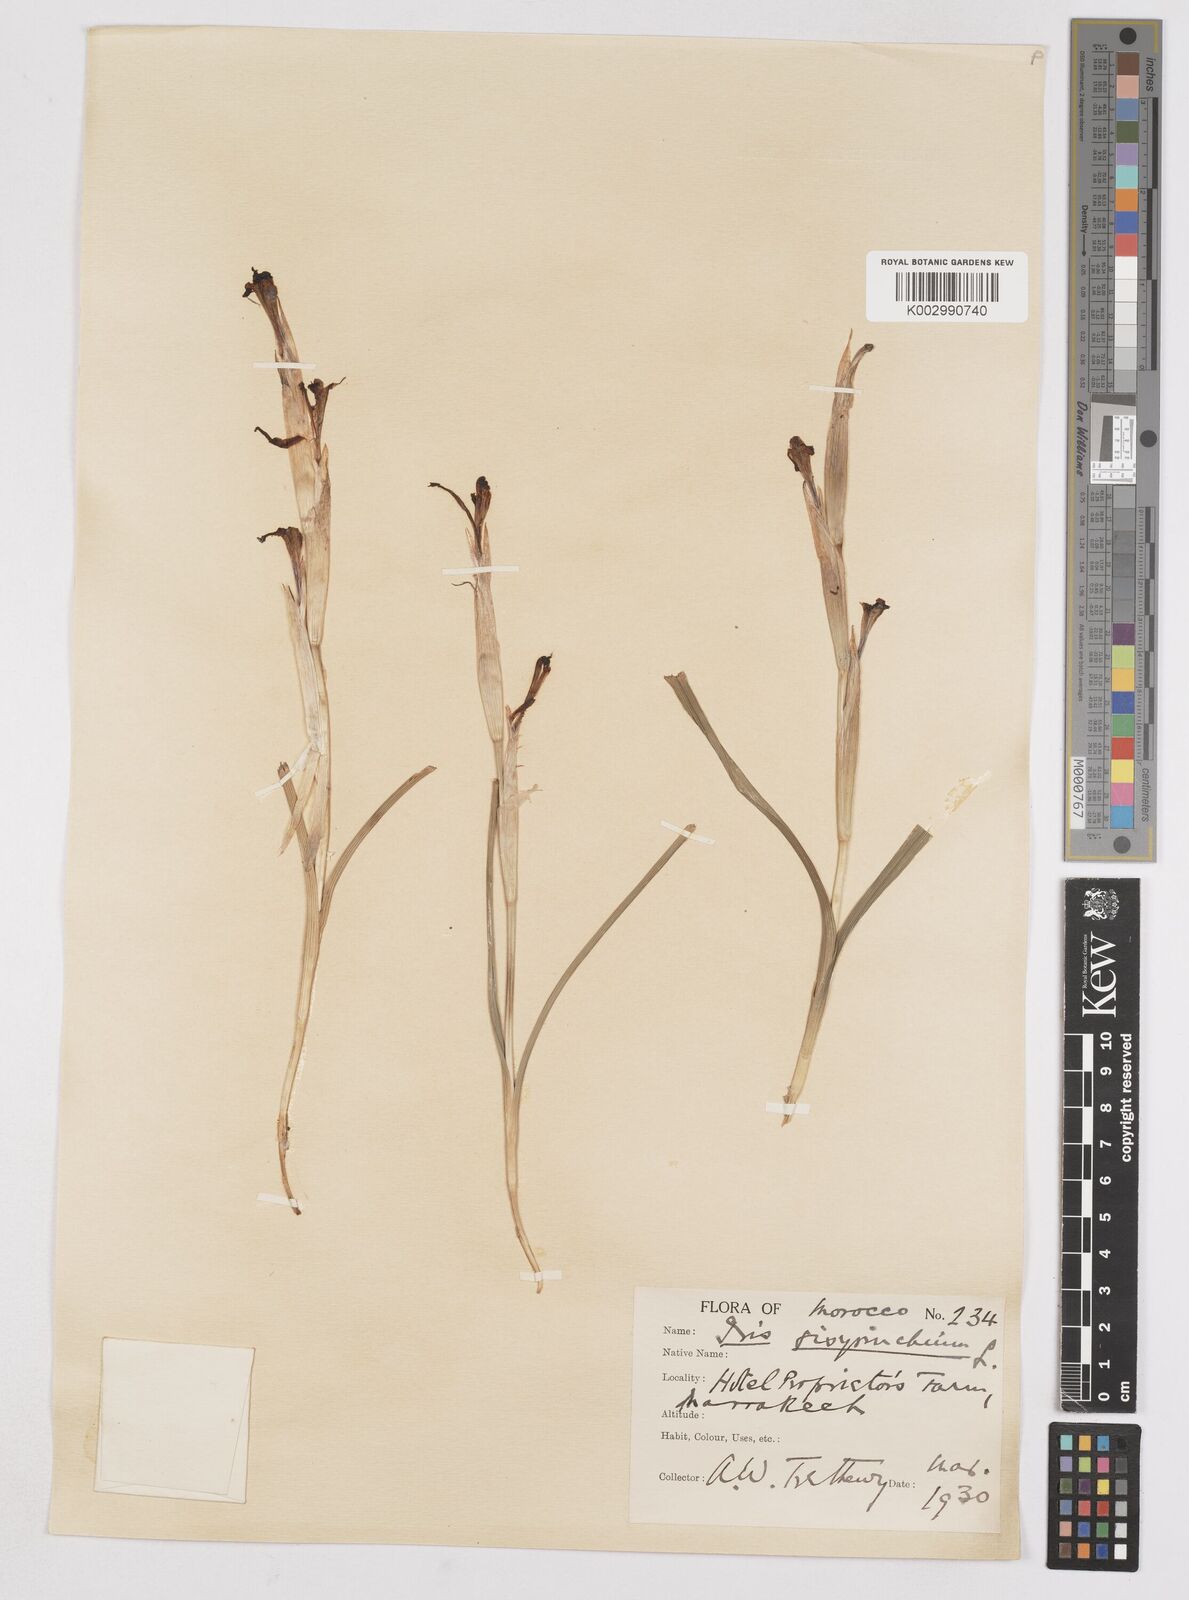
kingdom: Plantae
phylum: Tracheophyta
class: Liliopsida
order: Asparagales
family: Iridaceae
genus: Moraea
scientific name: Moraea sisyrinchium
